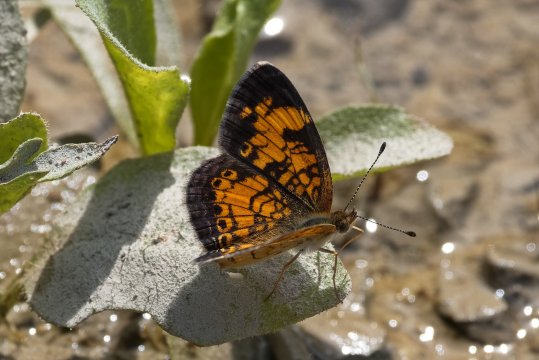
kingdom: Animalia
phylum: Arthropoda
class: Insecta
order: Lepidoptera
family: Nymphalidae
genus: Phyciodes
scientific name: Phyciodes tharos
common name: Pearl Crescent
